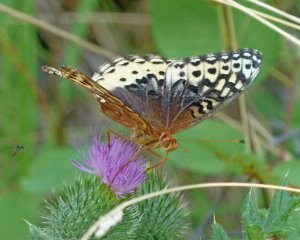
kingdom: Animalia
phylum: Arthropoda
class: Insecta
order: Lepidoptera
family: Nymphalidae
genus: Speyeria
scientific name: Speyeria cybele
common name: Great Spangled Fritillary
